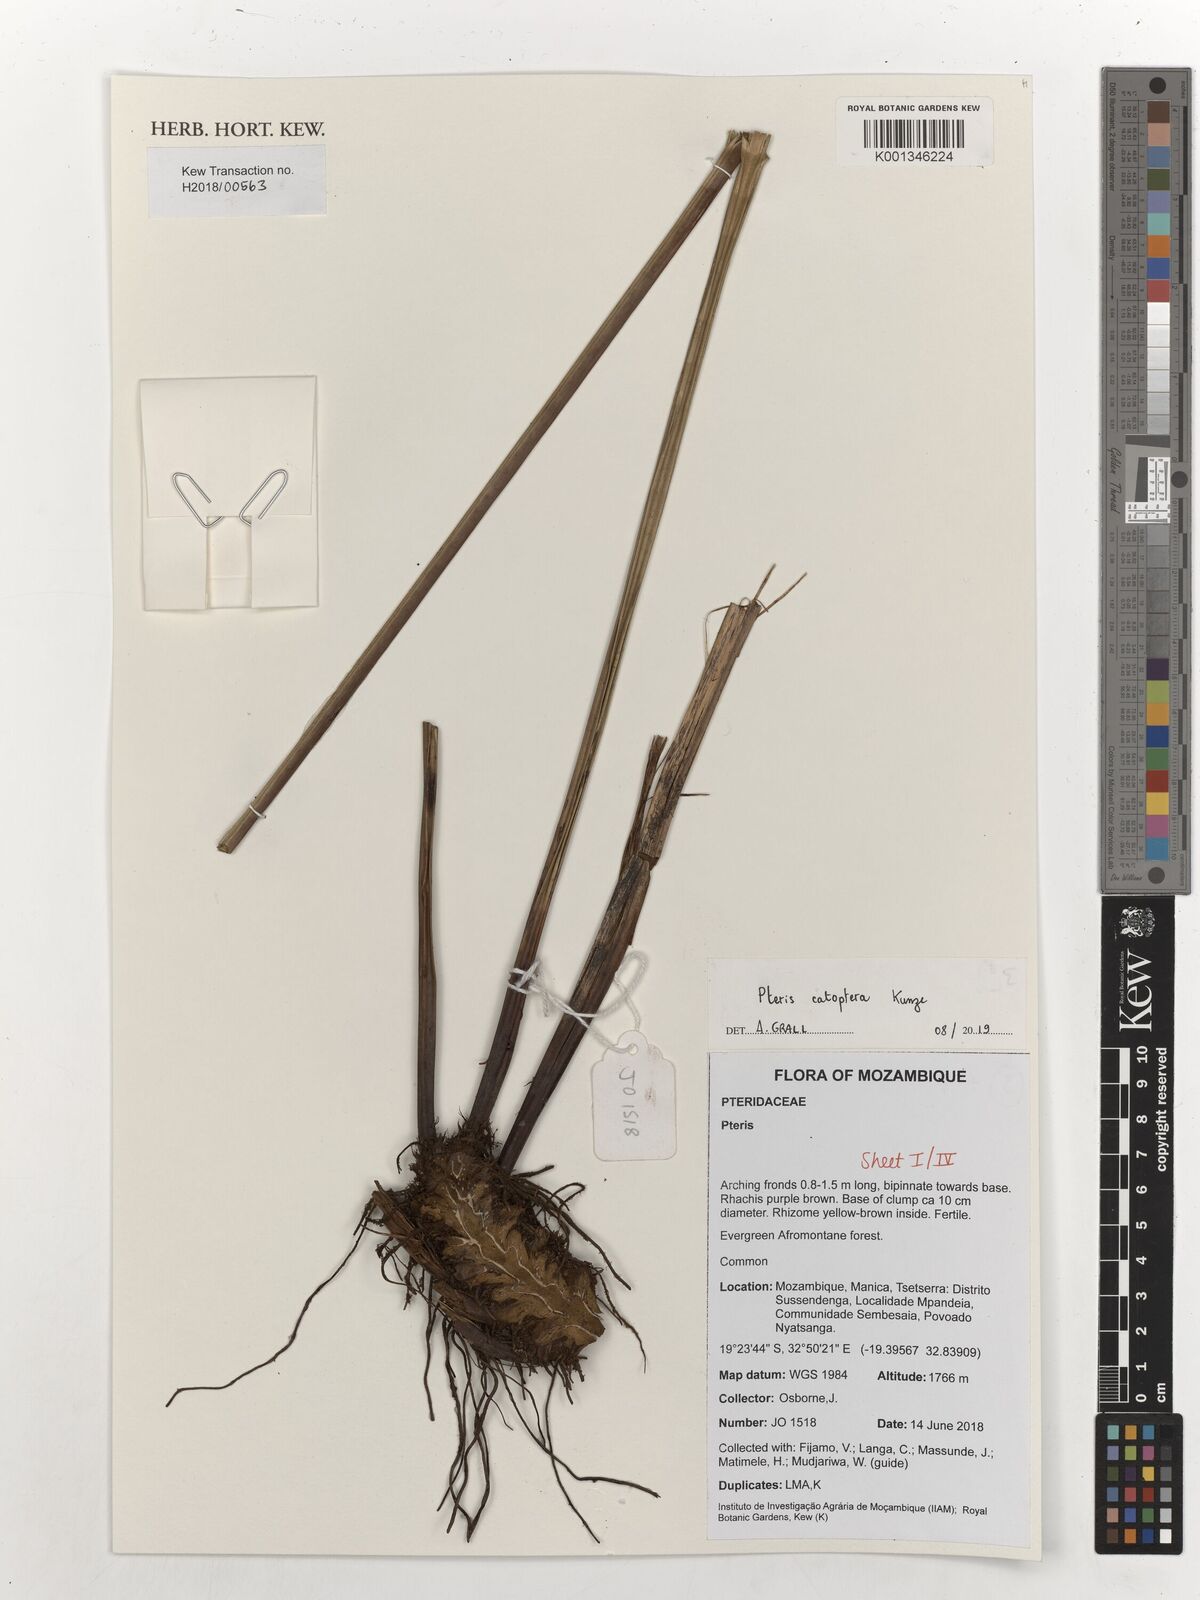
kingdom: Plantae
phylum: Tracheophyta
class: Polypodiopsida
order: Polypodiales
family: Pteridaceae
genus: Pteris
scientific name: Pteris catoptera
